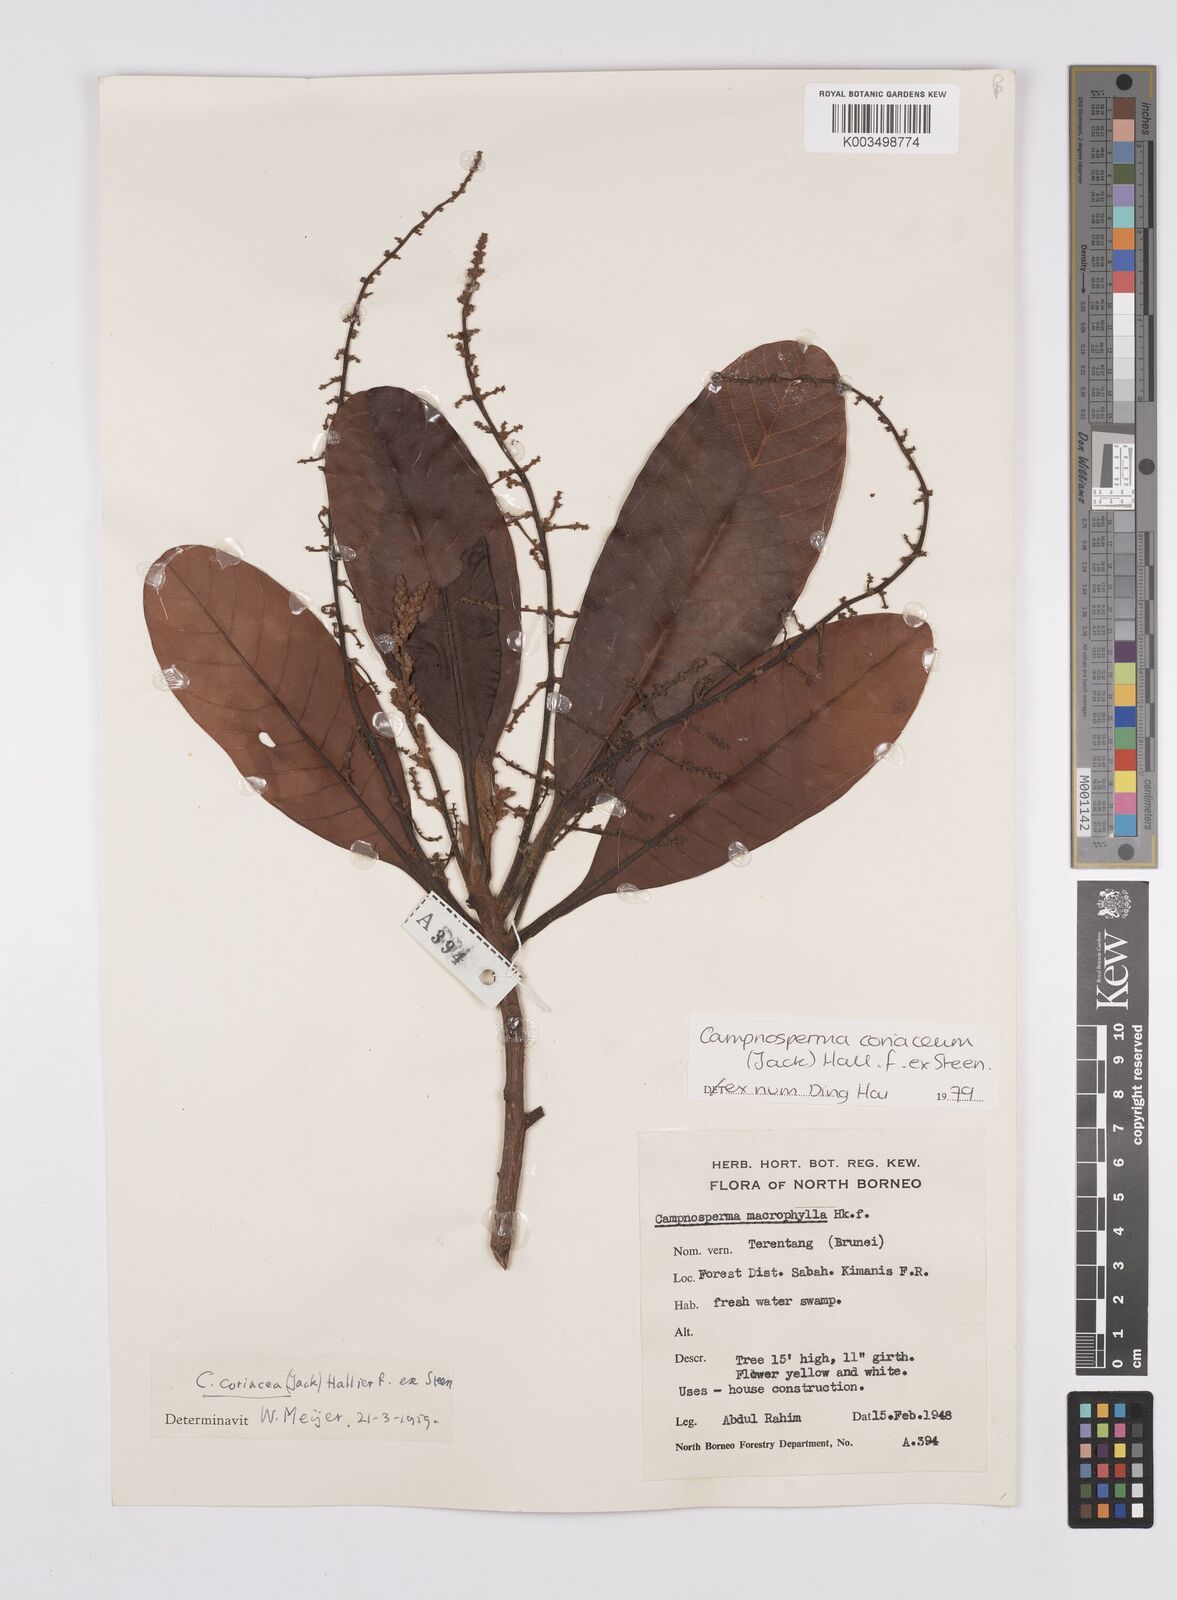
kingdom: Plantae
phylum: Tracheophyta
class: Magnoliopsida
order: Sapindales
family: Anacardiaceae
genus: Campnosperma
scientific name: Campnosperma coriaceum
